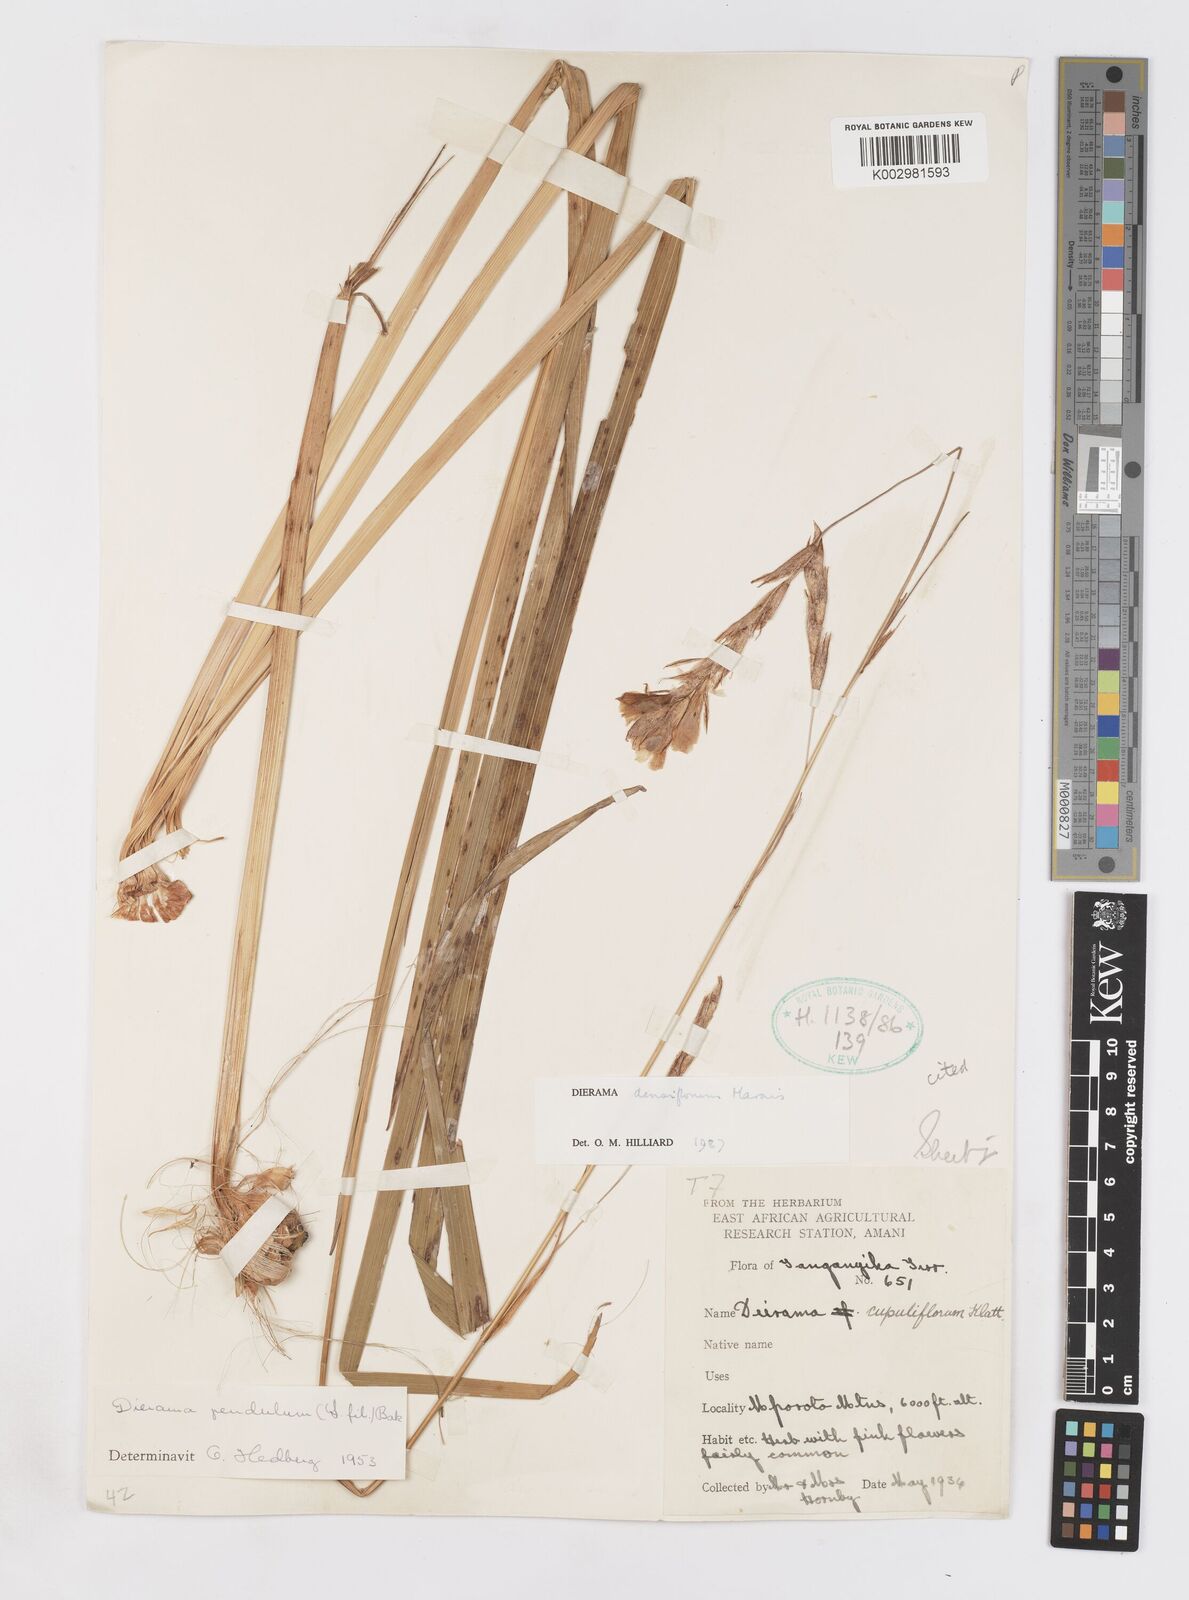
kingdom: Plantae
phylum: Tracheophyta
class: Liliopsida
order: Asparagales
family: Iridaceae
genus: Dierama
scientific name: Dierama densiflorum
